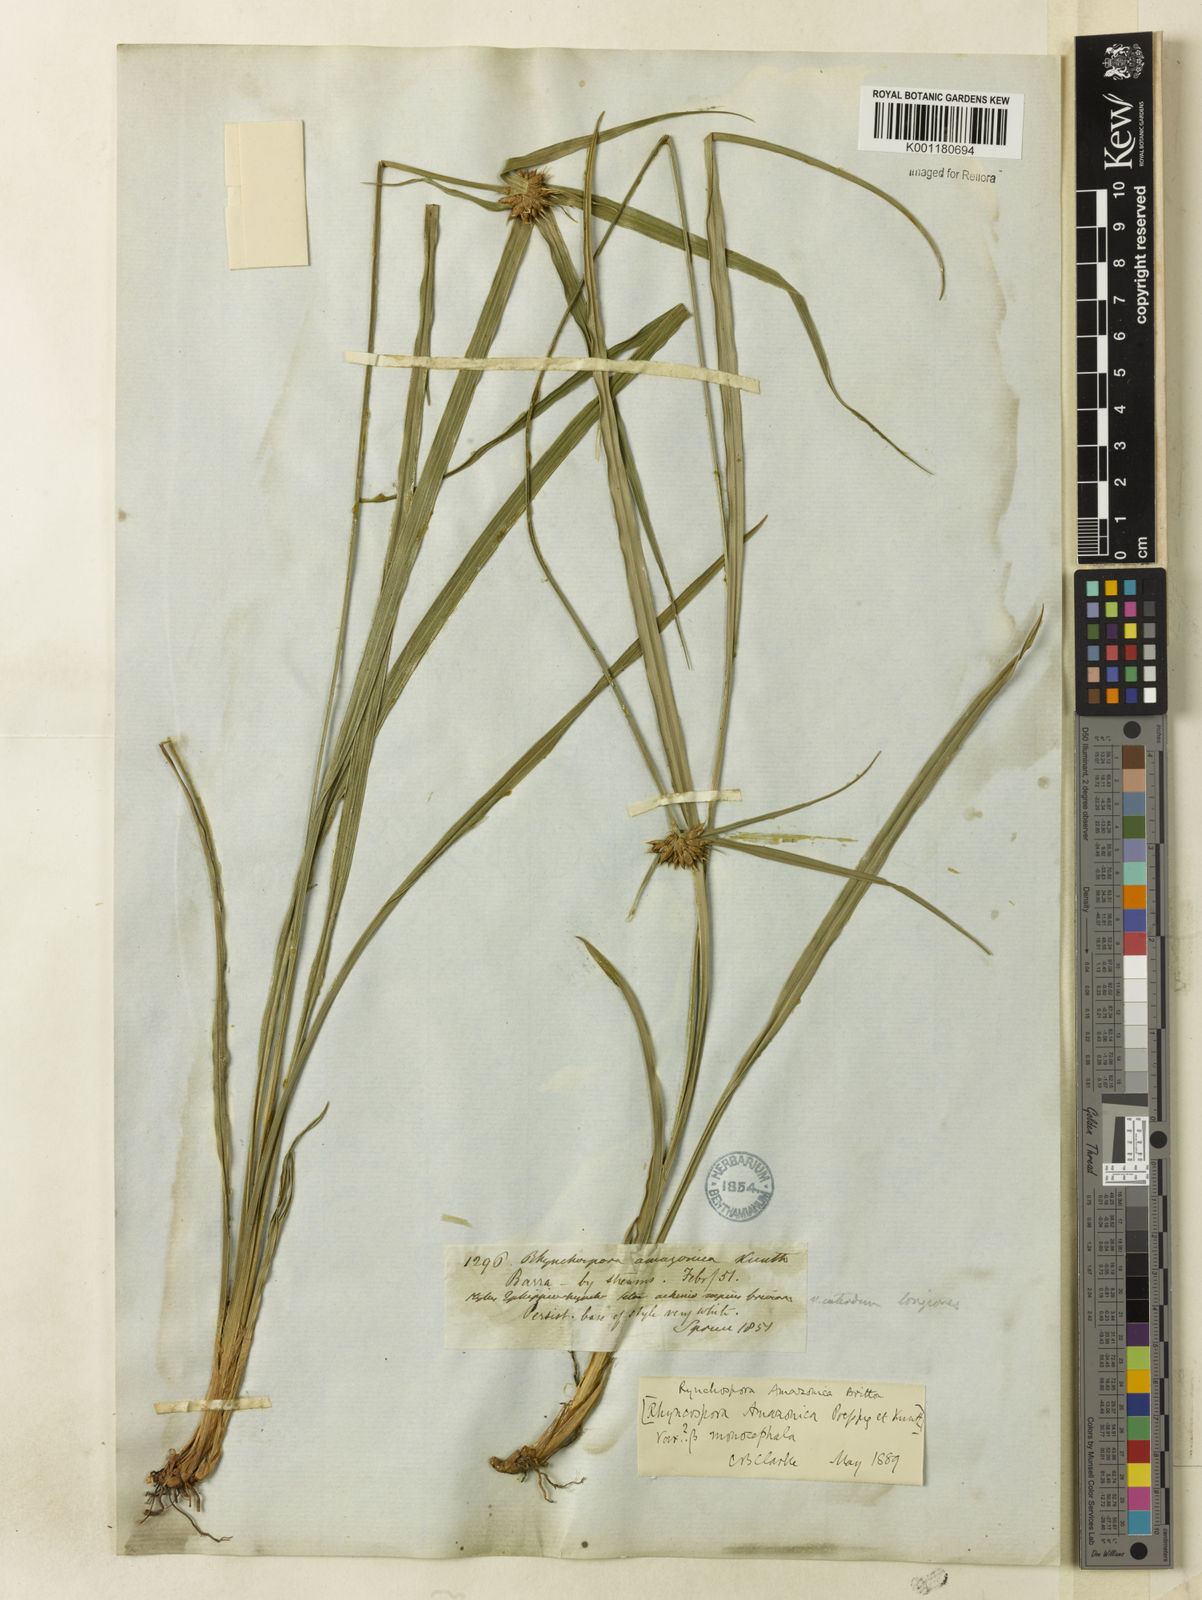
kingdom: Plantae
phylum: Tracheophyta
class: Liliopsida
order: Poales
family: Cyperaceae
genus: Rhynchospora
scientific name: Rhynchospora amazonica
